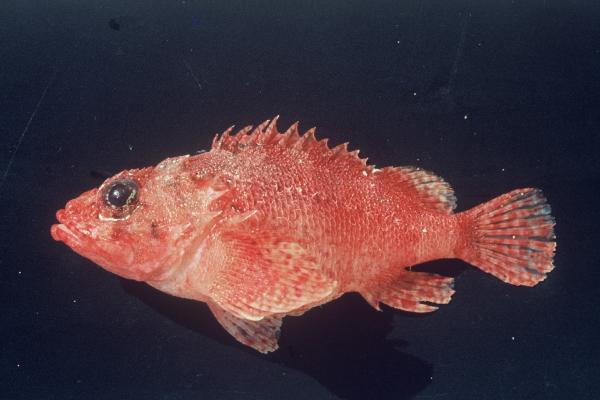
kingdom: Animalia
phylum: Chordata
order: Scorpaeniformes
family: Scorpaenidae
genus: Scorpaenodes
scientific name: Scorpaenodes parvipinnis
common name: Coral scorpionfish
